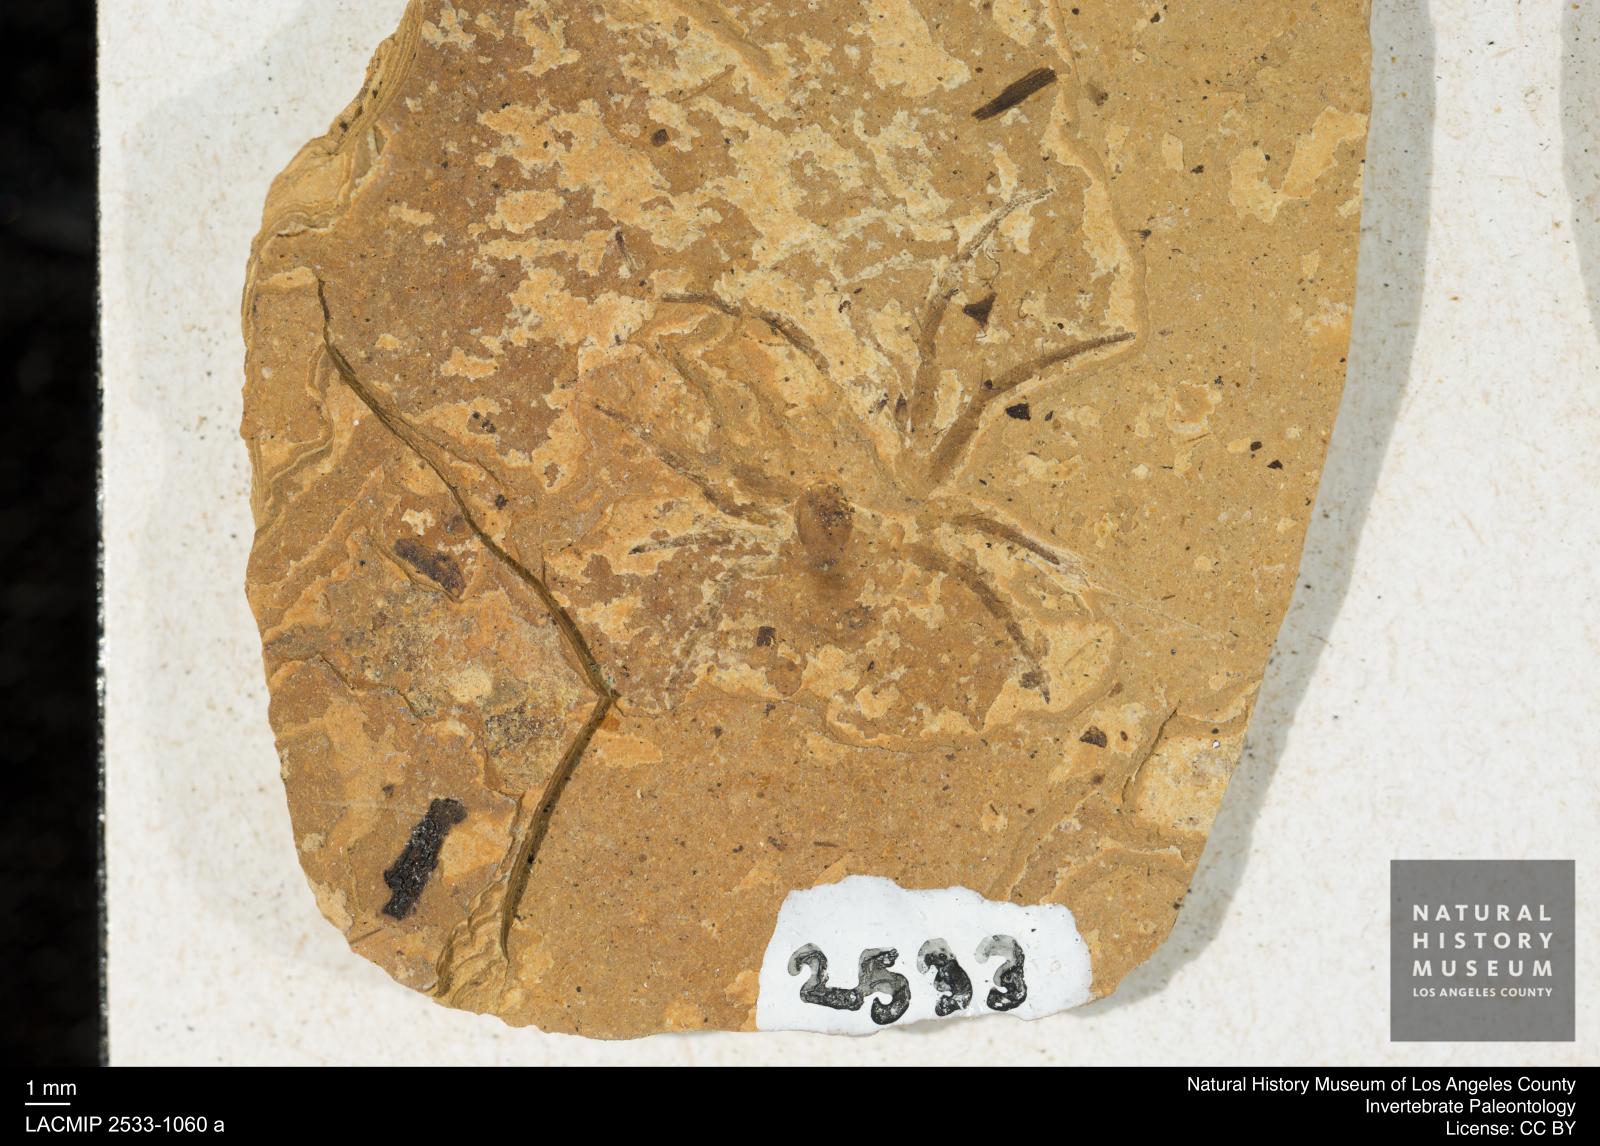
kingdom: Animalia
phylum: Arthropoda
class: Arachnida
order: Araneae
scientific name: Araneae
